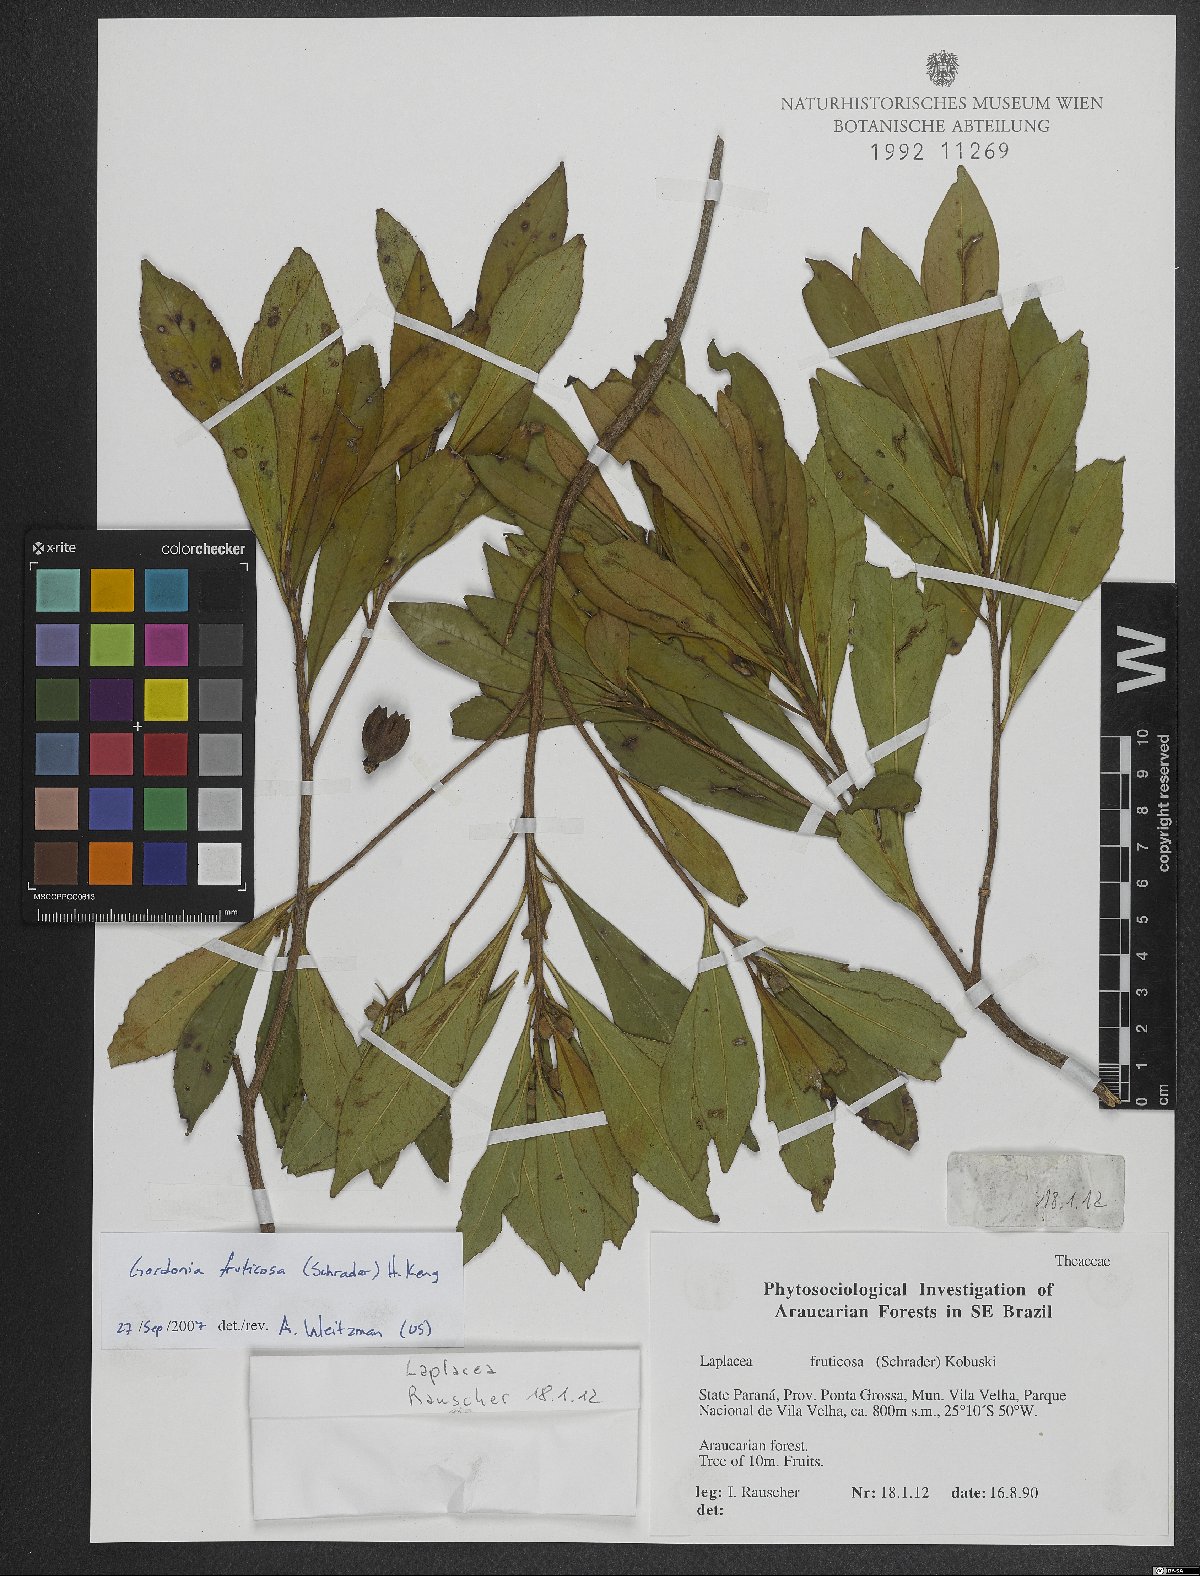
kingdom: Plantae
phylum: Tracheophyta
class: Magnoliopsida
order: Ericales
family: Theaceae
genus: Gordonia
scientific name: Gordonia fruticosa
